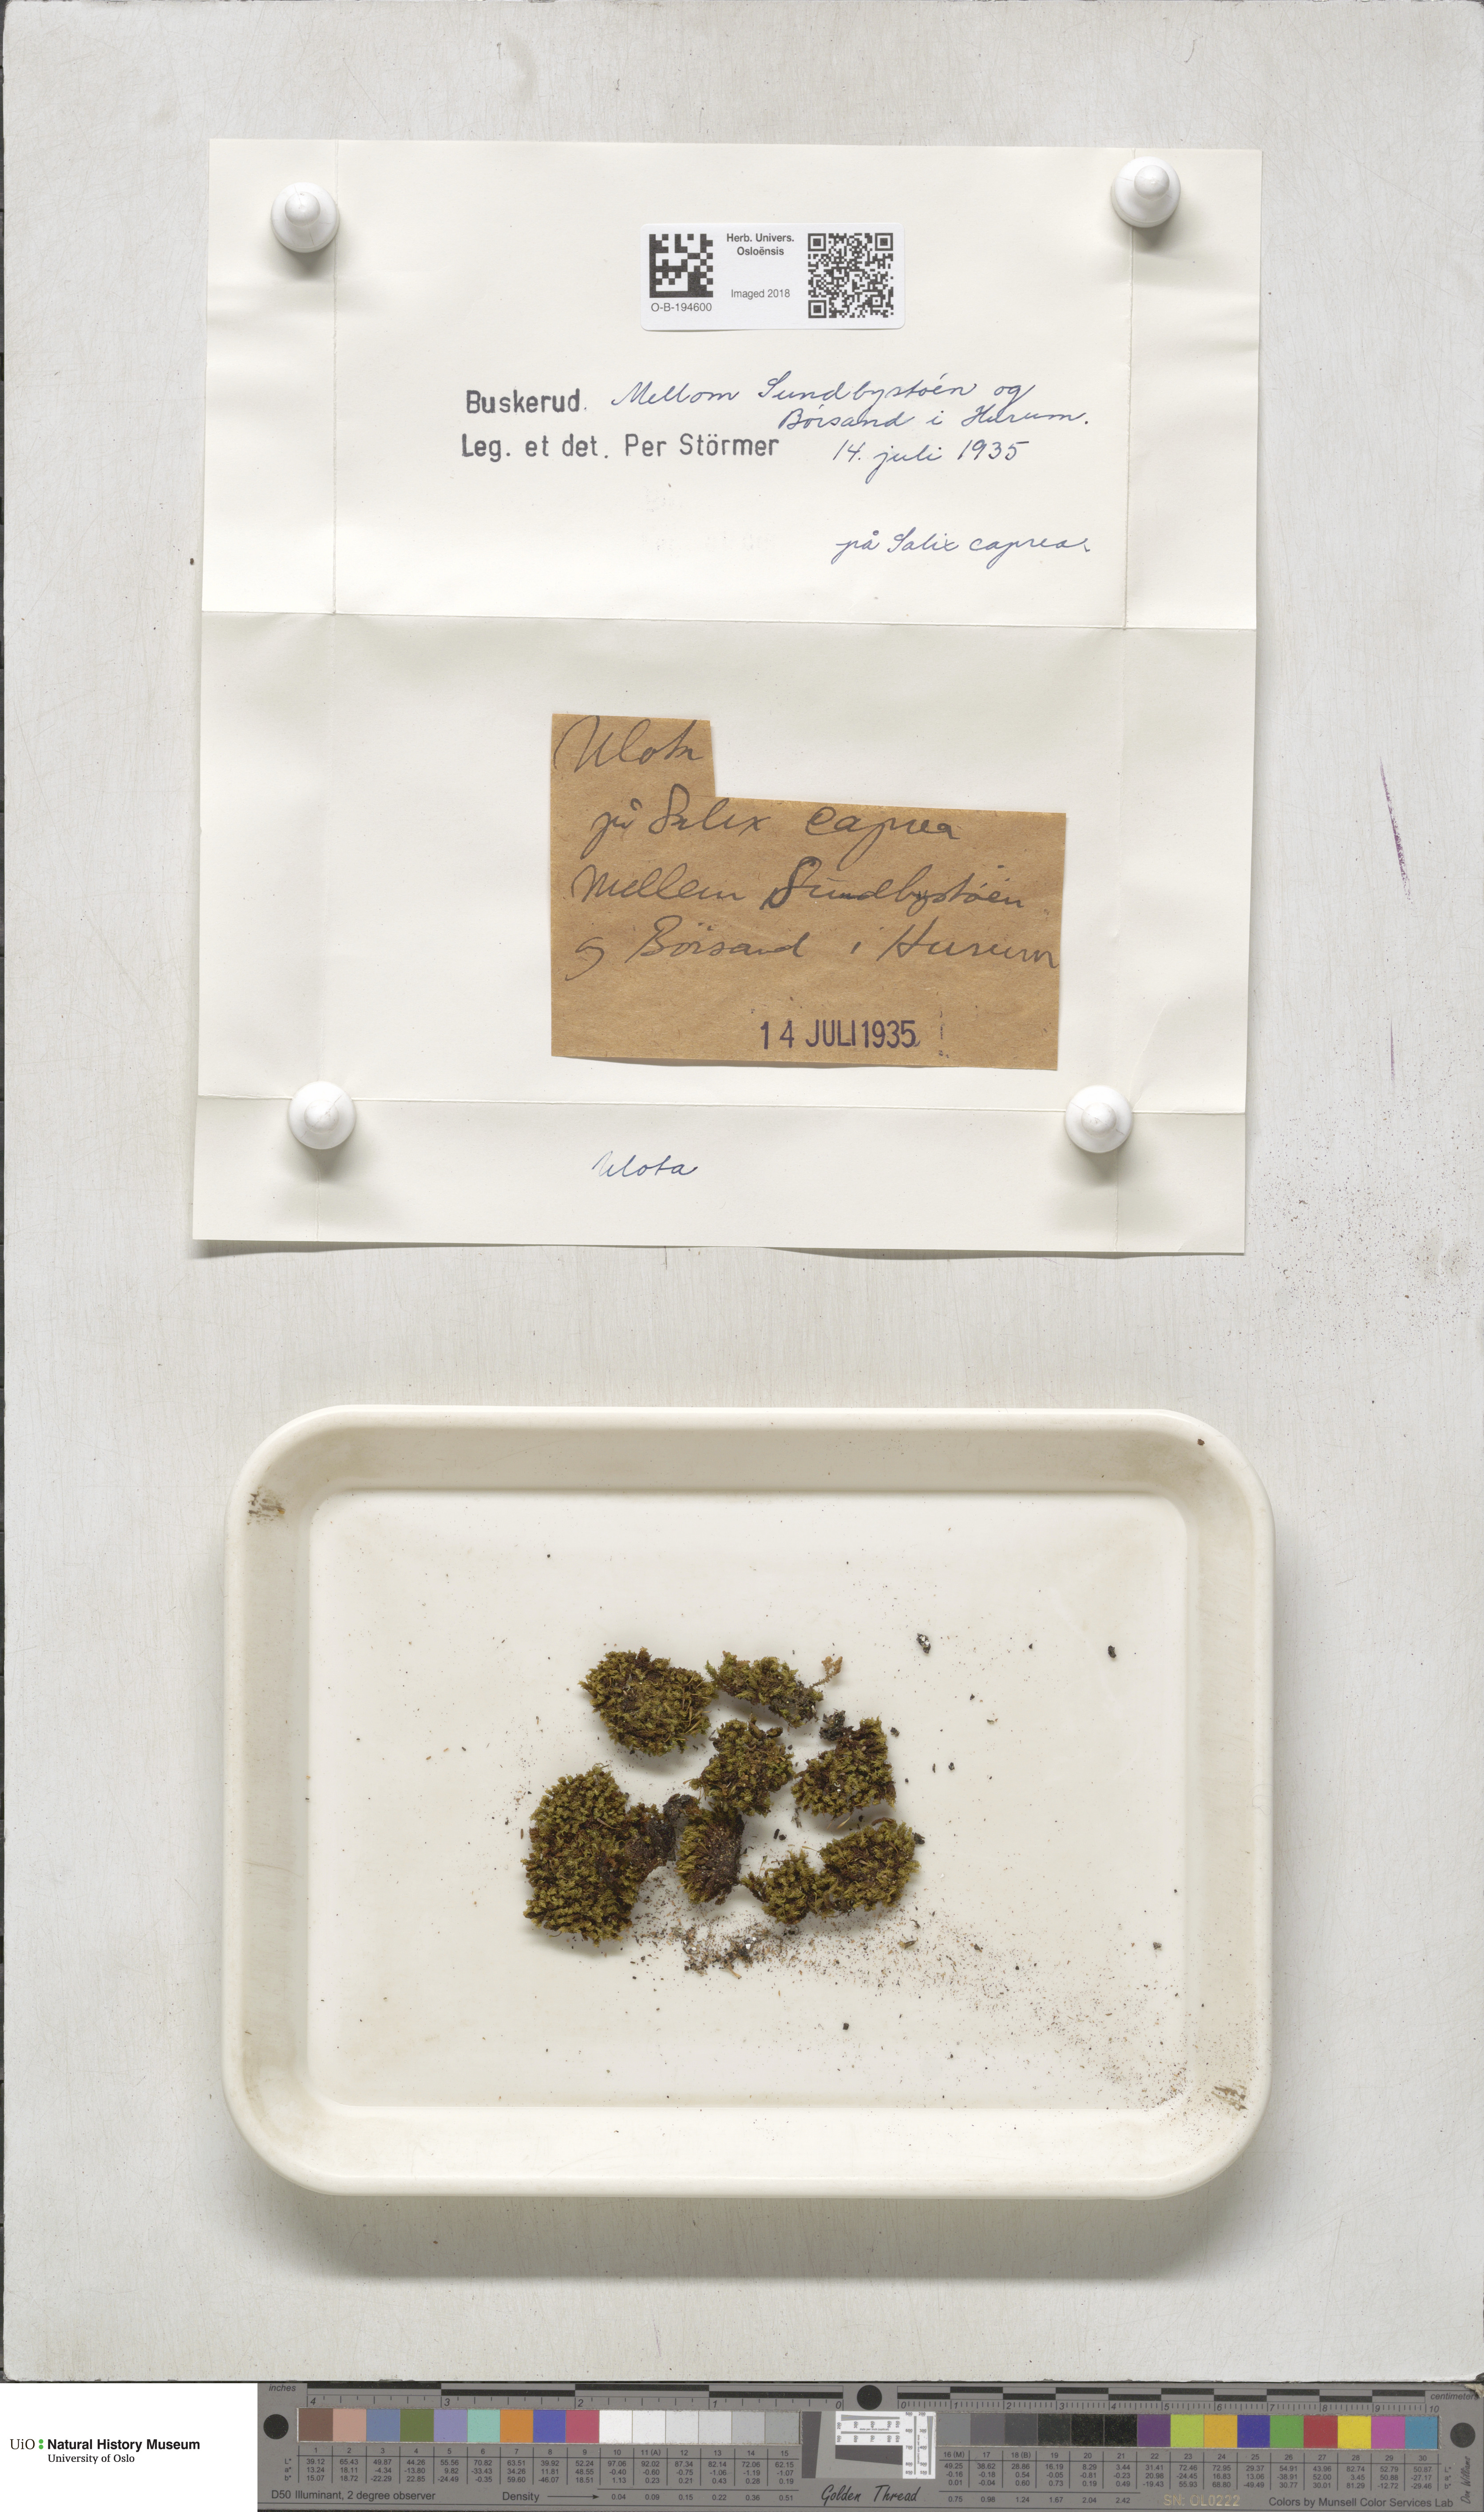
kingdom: Plantae
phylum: Bryophyta
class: Bryopsida
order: Orthotrichales
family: Orthotrichaceae
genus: Ulota
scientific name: Ulota
